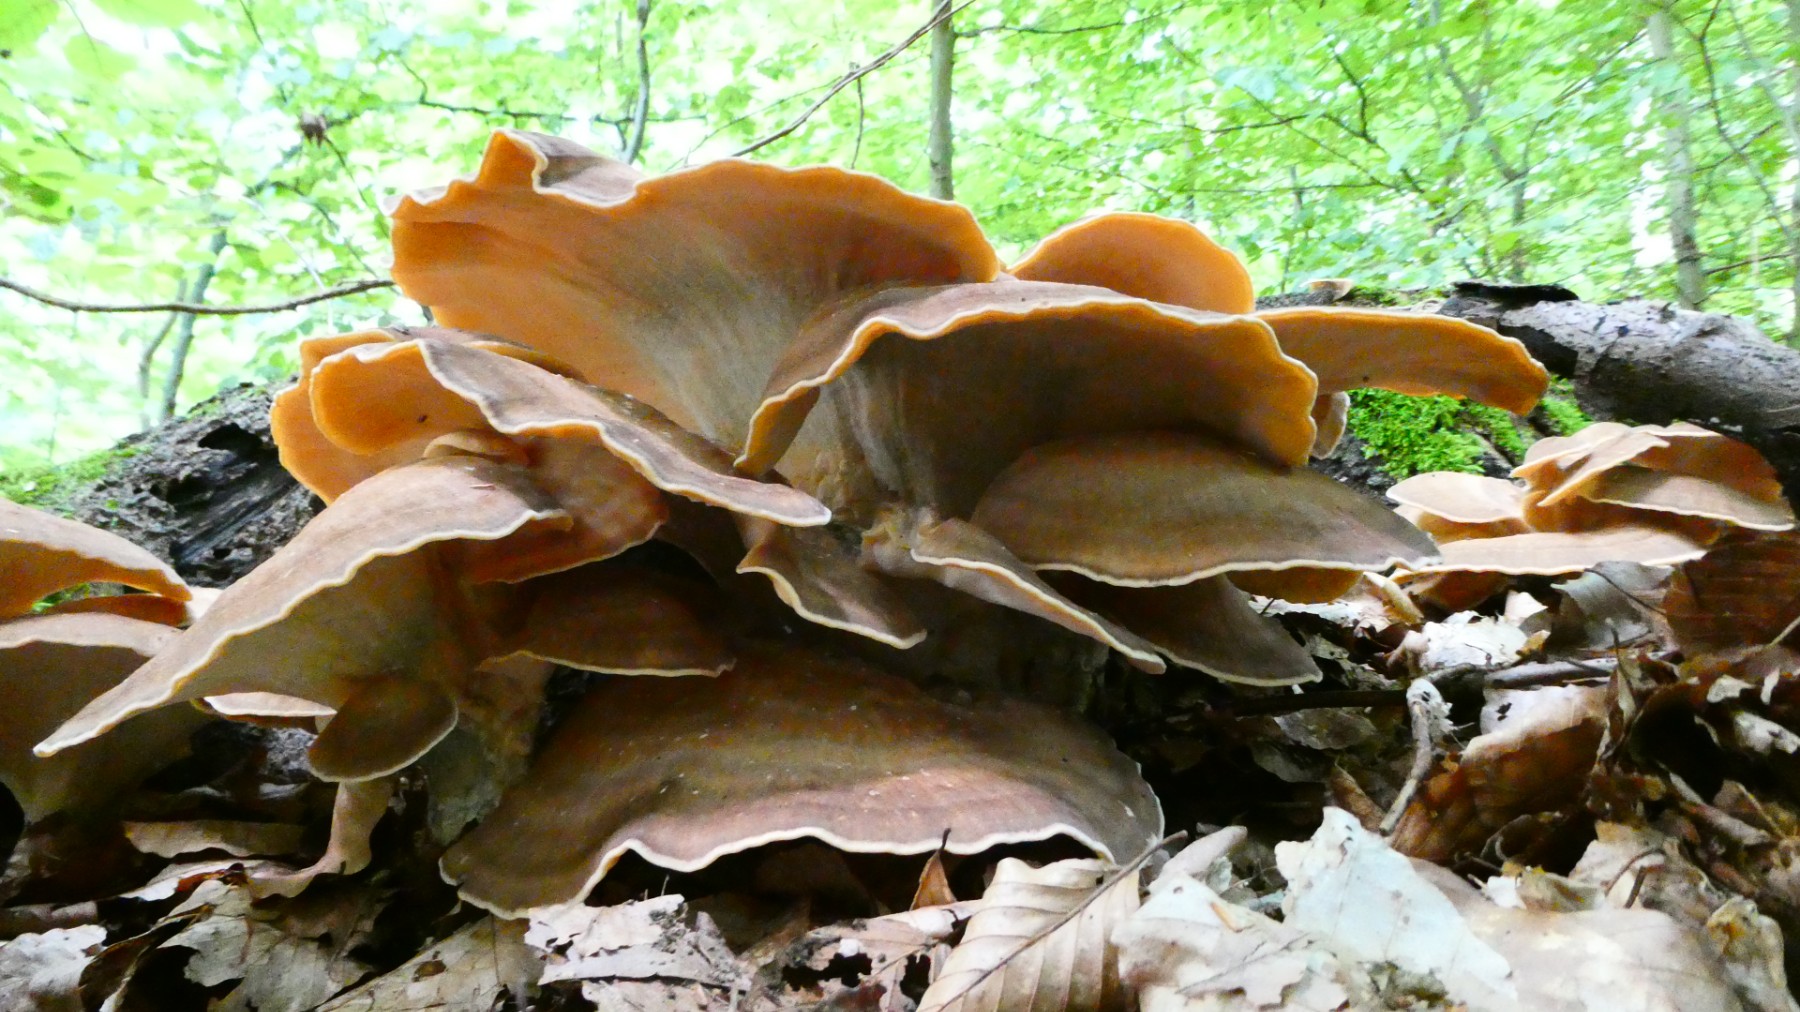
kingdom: Fungi
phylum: Basidiomycota
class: Agaricomycetes
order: Polyporales
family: Meripilaceae
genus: Meripilus
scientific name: Meripilus giganteus
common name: kæmpeporesvamp
